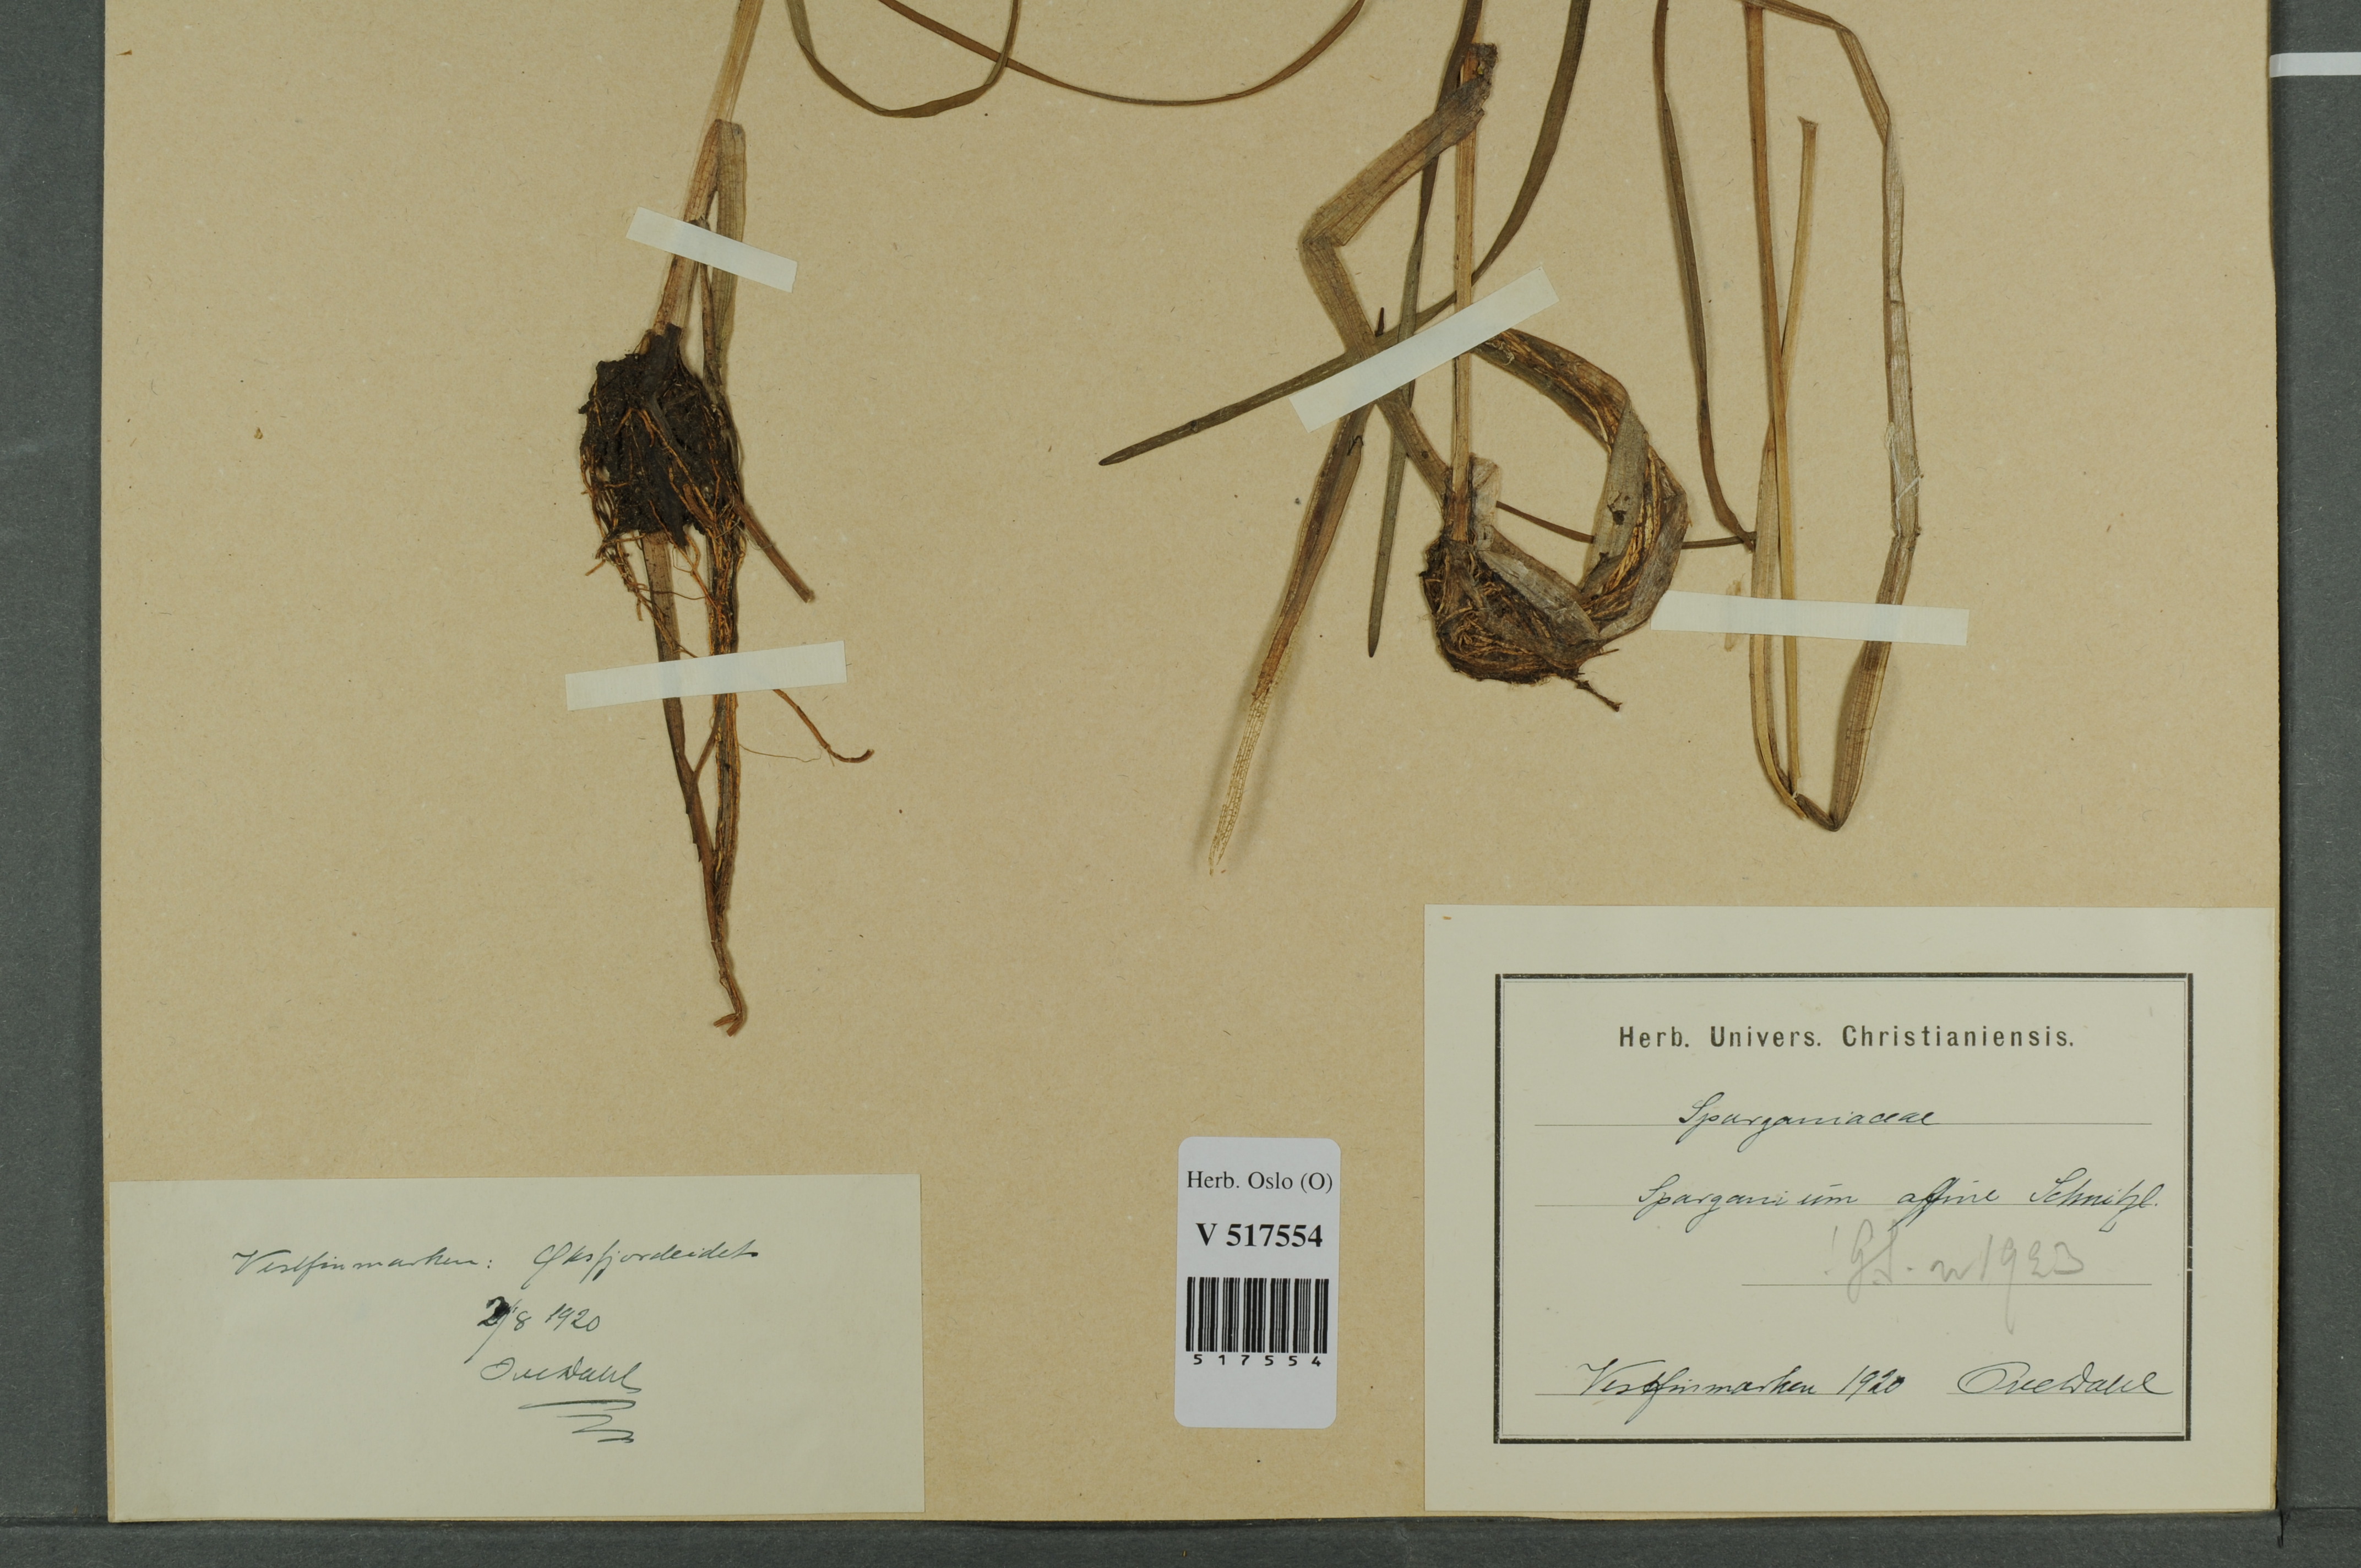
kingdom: Plantae
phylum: Tracheophyta
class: Liliopsida
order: Poales
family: Typhaceae
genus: Sparganium
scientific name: Sparganium angustifolium
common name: Floating bur-reed
